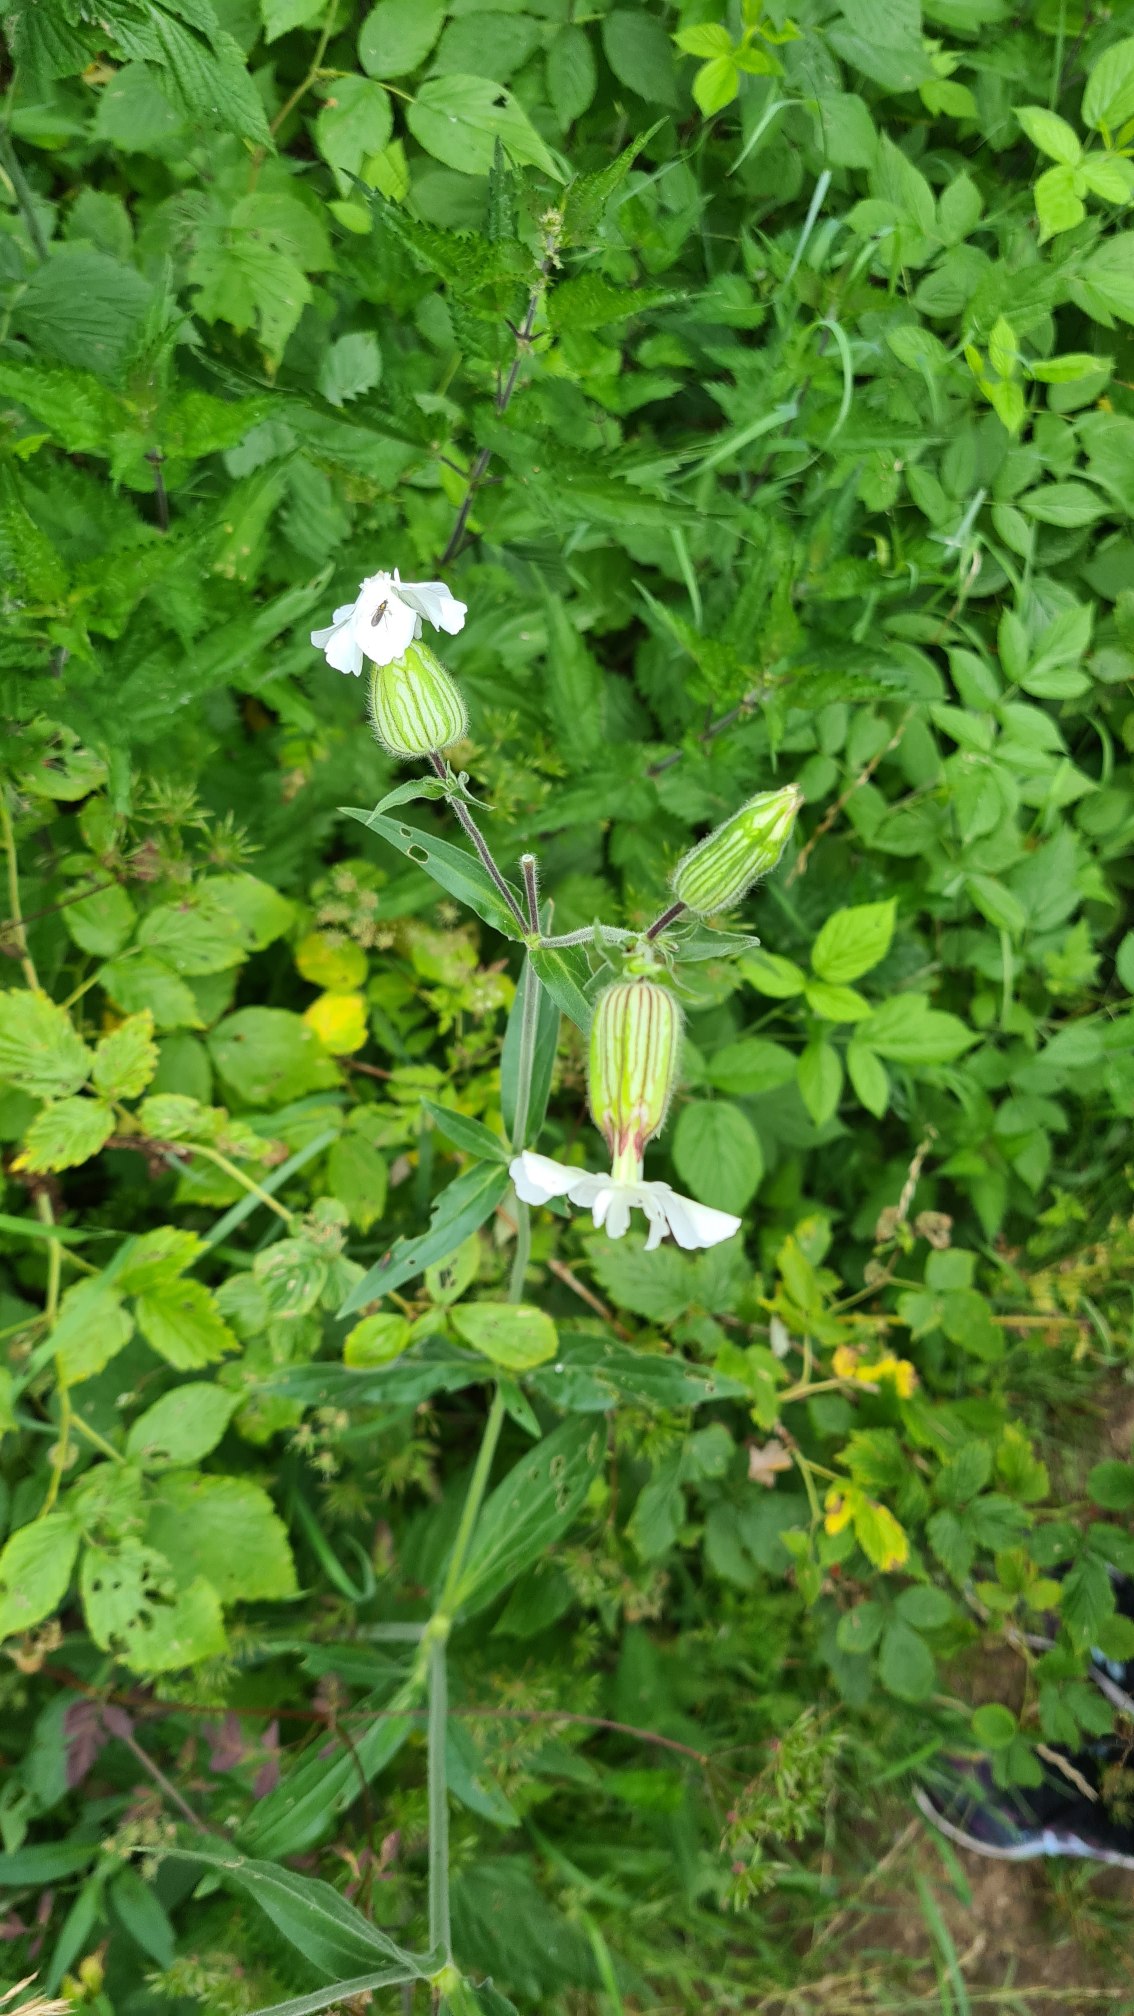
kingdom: Plantae
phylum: Tracheophyta
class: Magnoliopsida
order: Caryophyllales
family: Caryophyllaceae
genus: Silene
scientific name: Silene latifolia
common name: Aftenpragtstjerne
